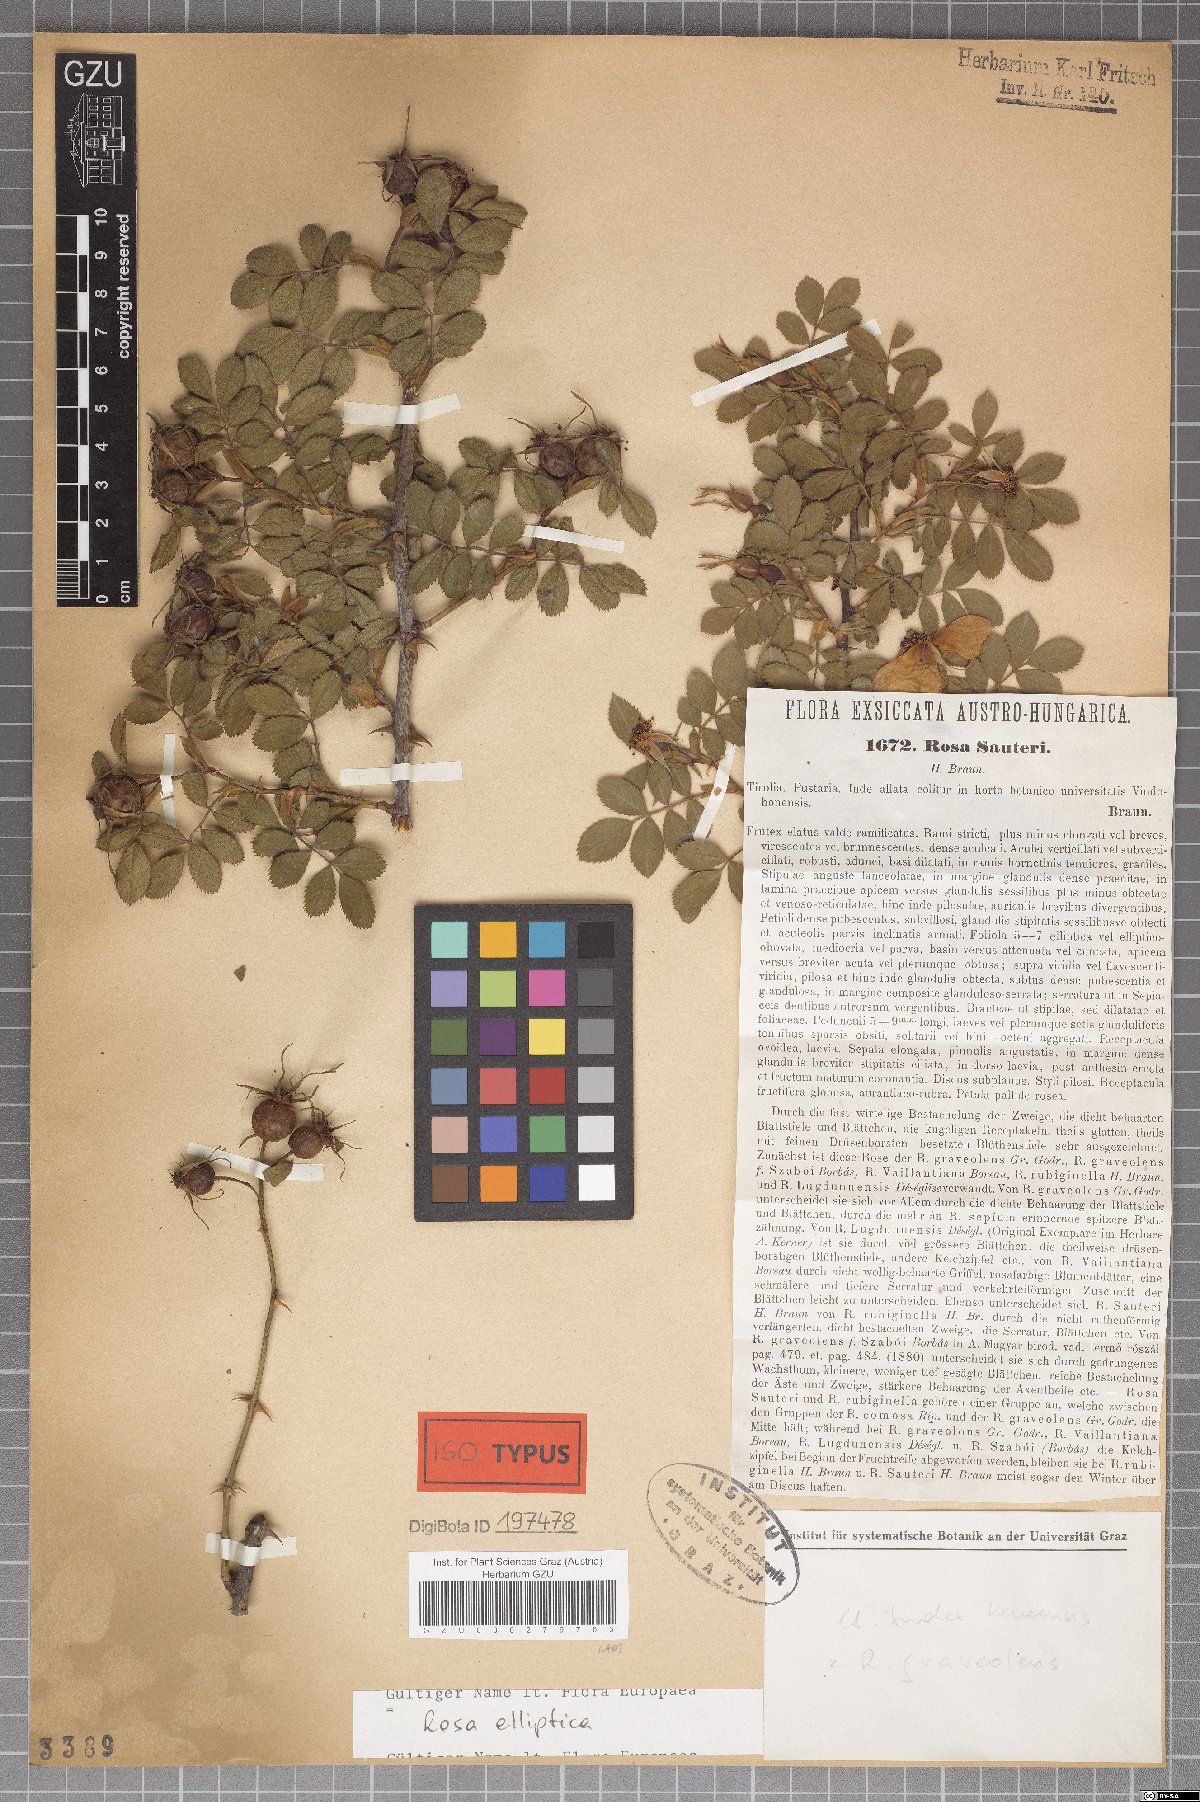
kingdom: Plantae
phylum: Tracheophyta
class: Magnoliopsida
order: Rosales
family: Rosaceae
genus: Rosa
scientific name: Rosa inodora
